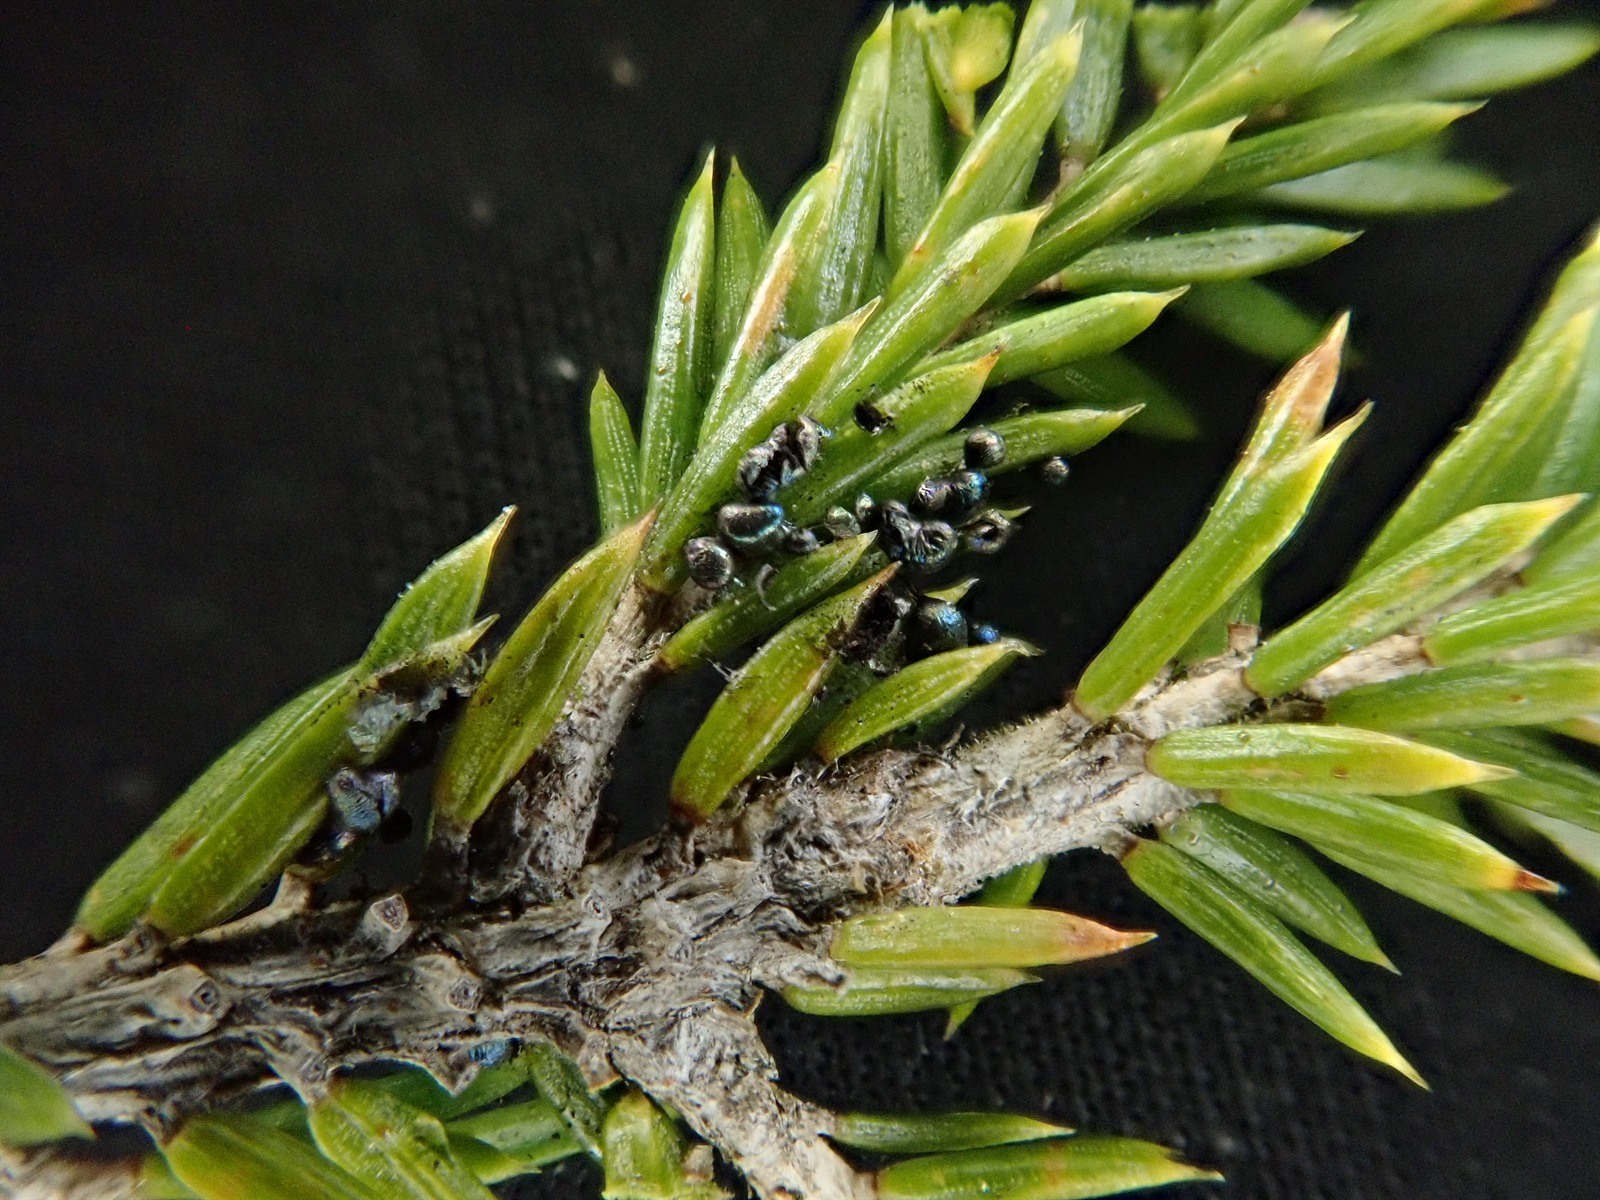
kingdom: Protozoa
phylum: Mycetozoa
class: Myxomycetes
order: Stemonitidales
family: Stemonitidaceae
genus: Diacheopsis
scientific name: Diacheopsis
